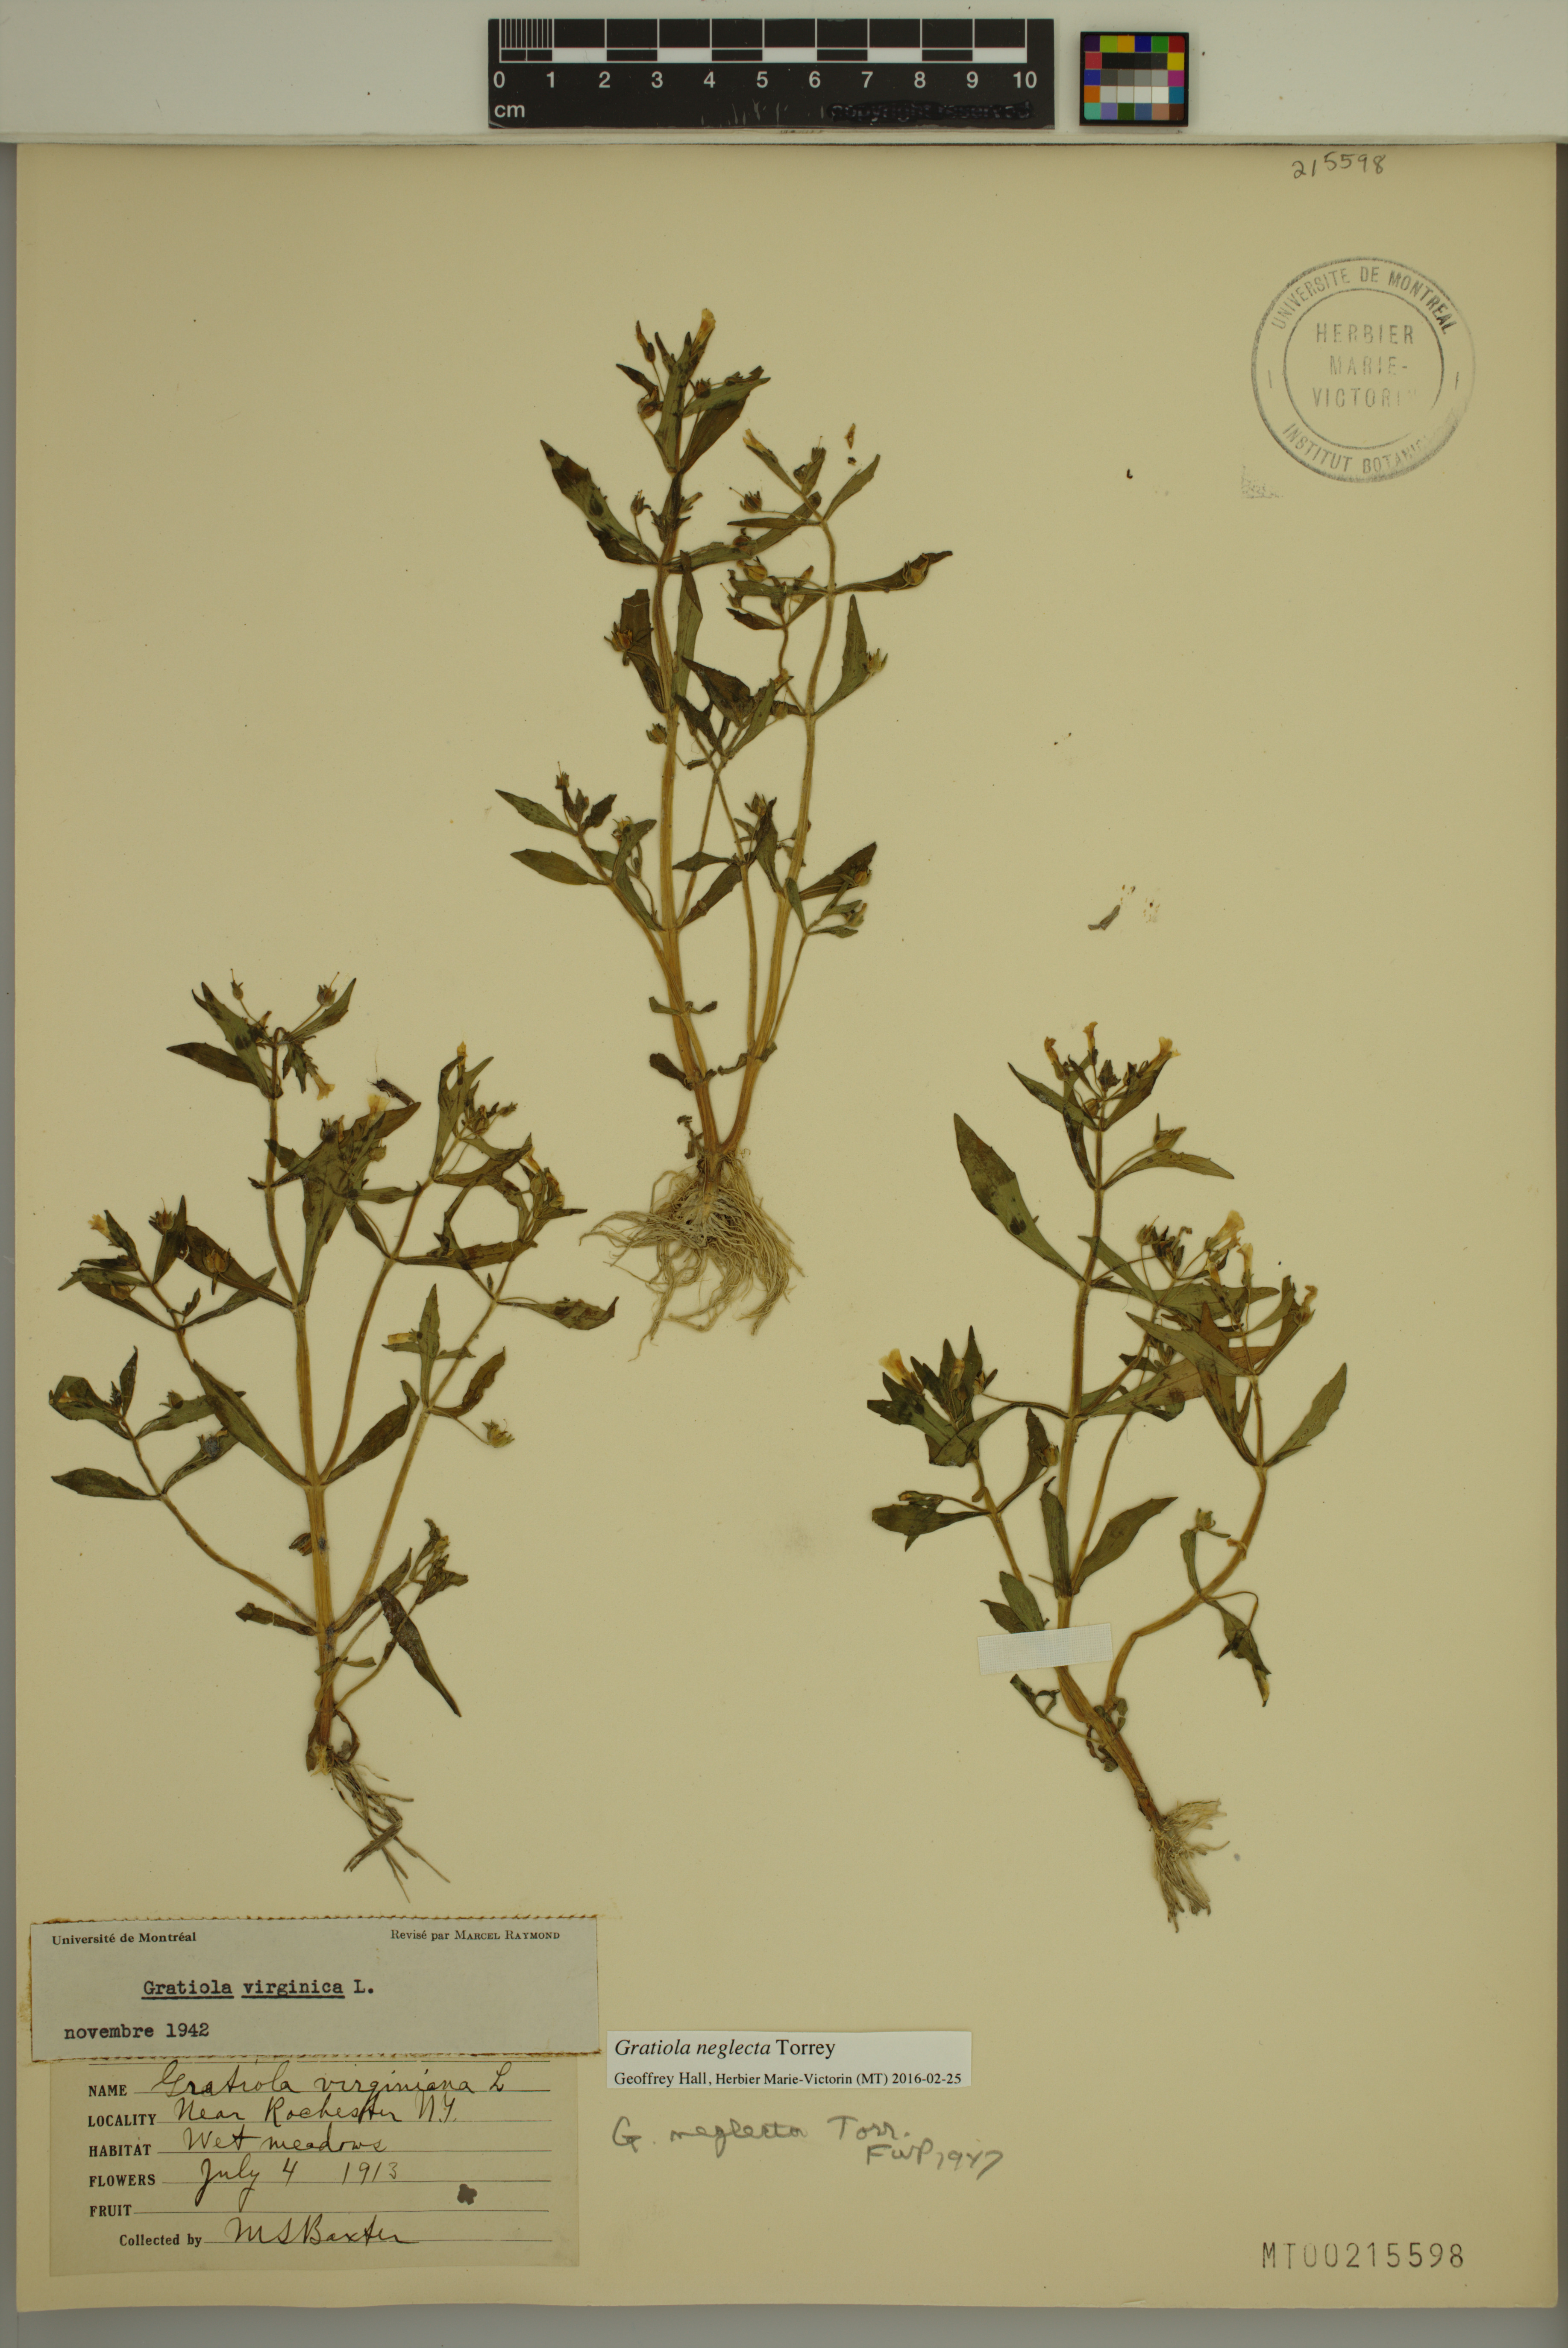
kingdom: Plantae
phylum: Tracheophyta
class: Magnoliopsida
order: Lamiales
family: Plantaginaceae
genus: Gratiola
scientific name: Gratiola neglecta
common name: American hedge-hyssop
